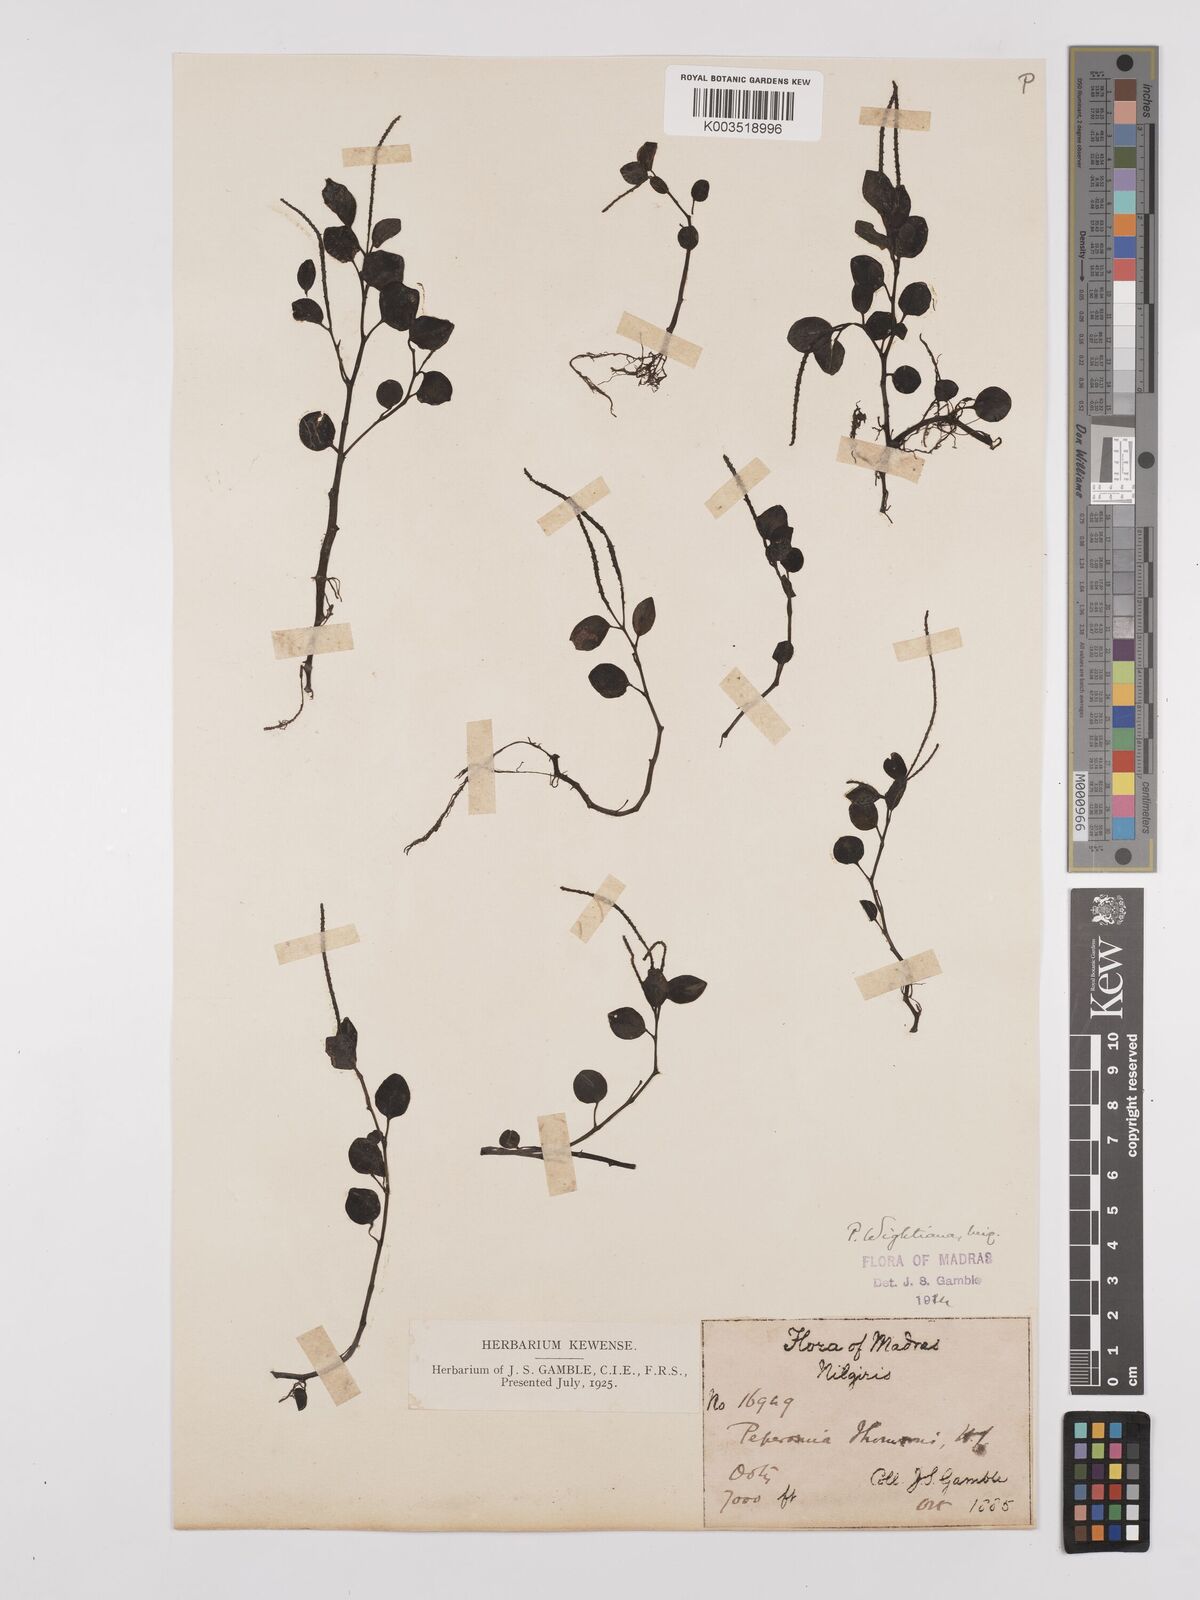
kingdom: Plantae
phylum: Tracheophyta
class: Magnoliopsida
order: Piperales
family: Piperaceae
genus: Peperomia
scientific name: Peperomia wightiana
